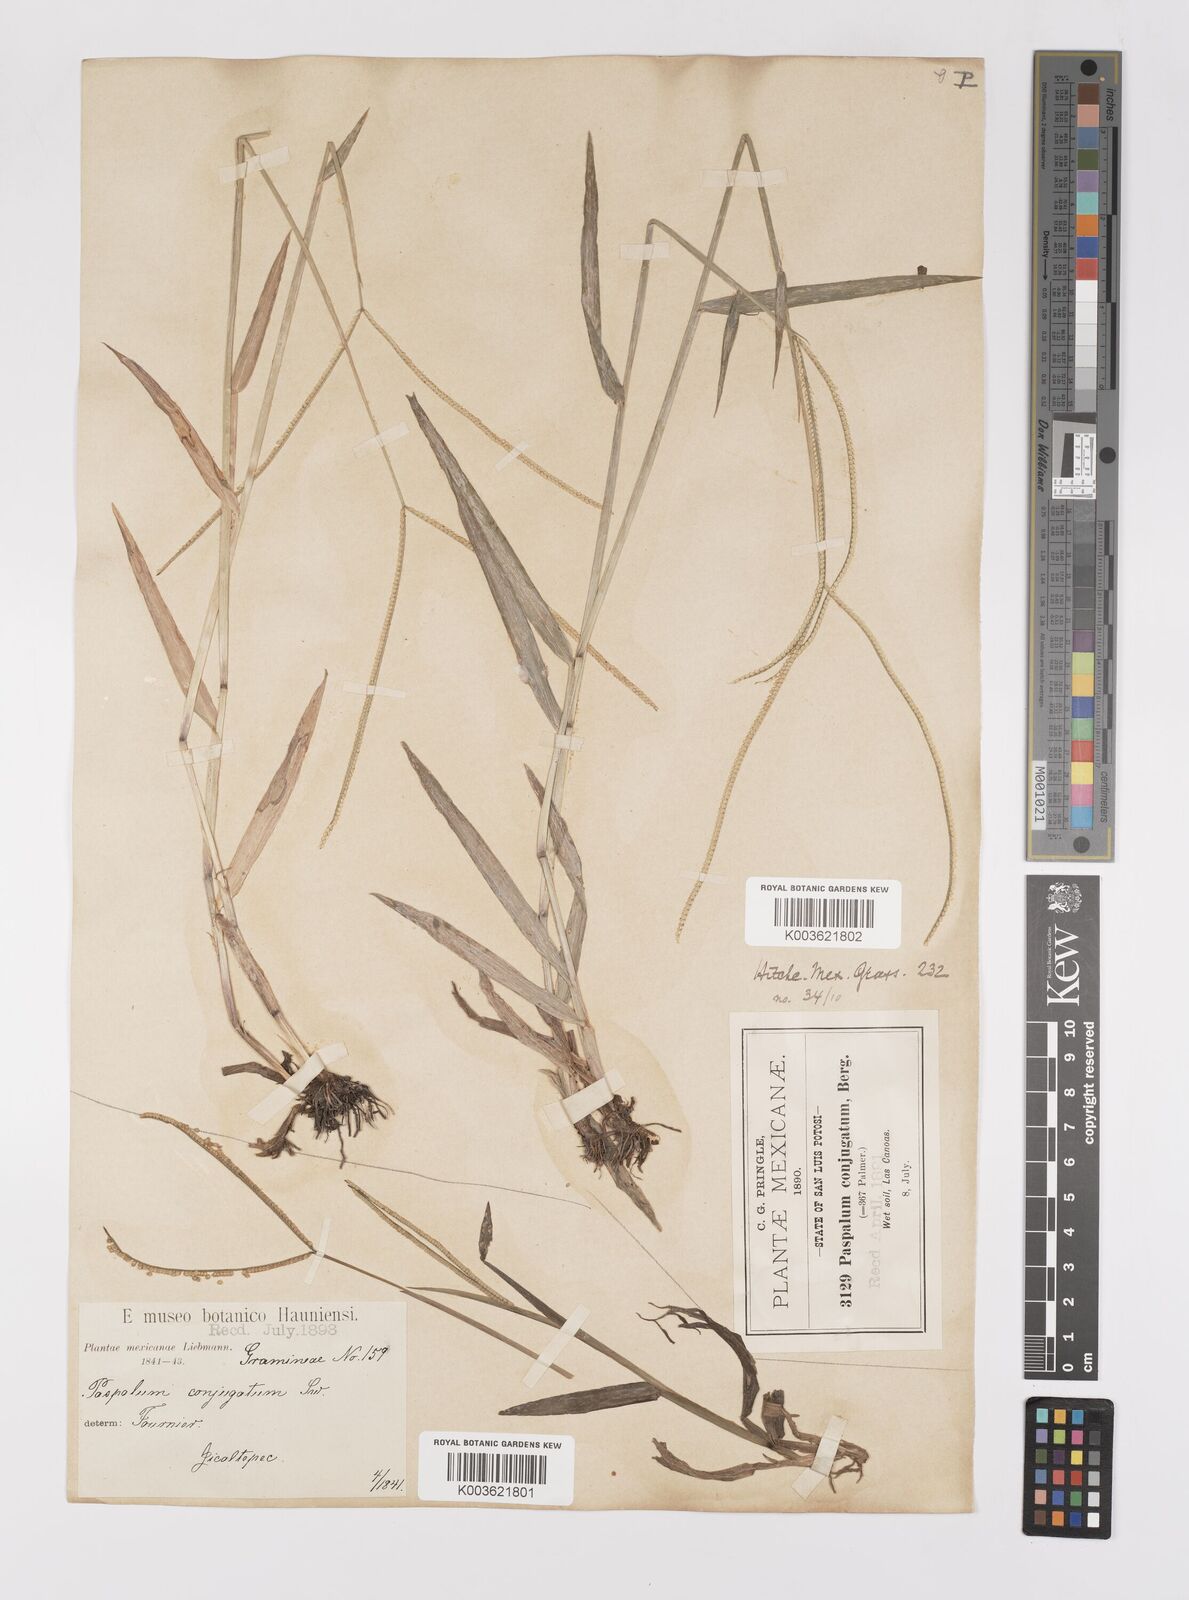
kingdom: Plantae
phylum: Tracheophyta
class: Liliopsida
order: Poales
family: Poaceae
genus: Paspalum
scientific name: Paspalum conjugatum
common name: Hilograss
